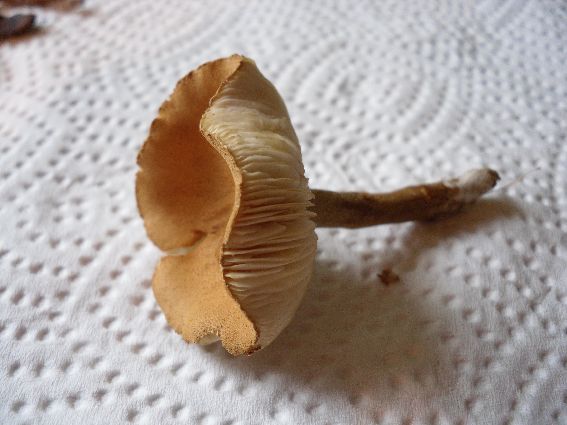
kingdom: Fungi
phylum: Basidiomycota
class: Agaricomycetes
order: Agaricales
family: Tricholomataceae
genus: Cystoderma
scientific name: Cystoderma amianthinum
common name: okkergul grynhat
